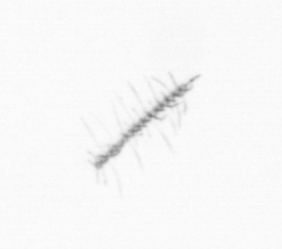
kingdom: Chromista
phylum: Ochrophyta
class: Bacillariophyceae
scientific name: Bacillariophyceae
